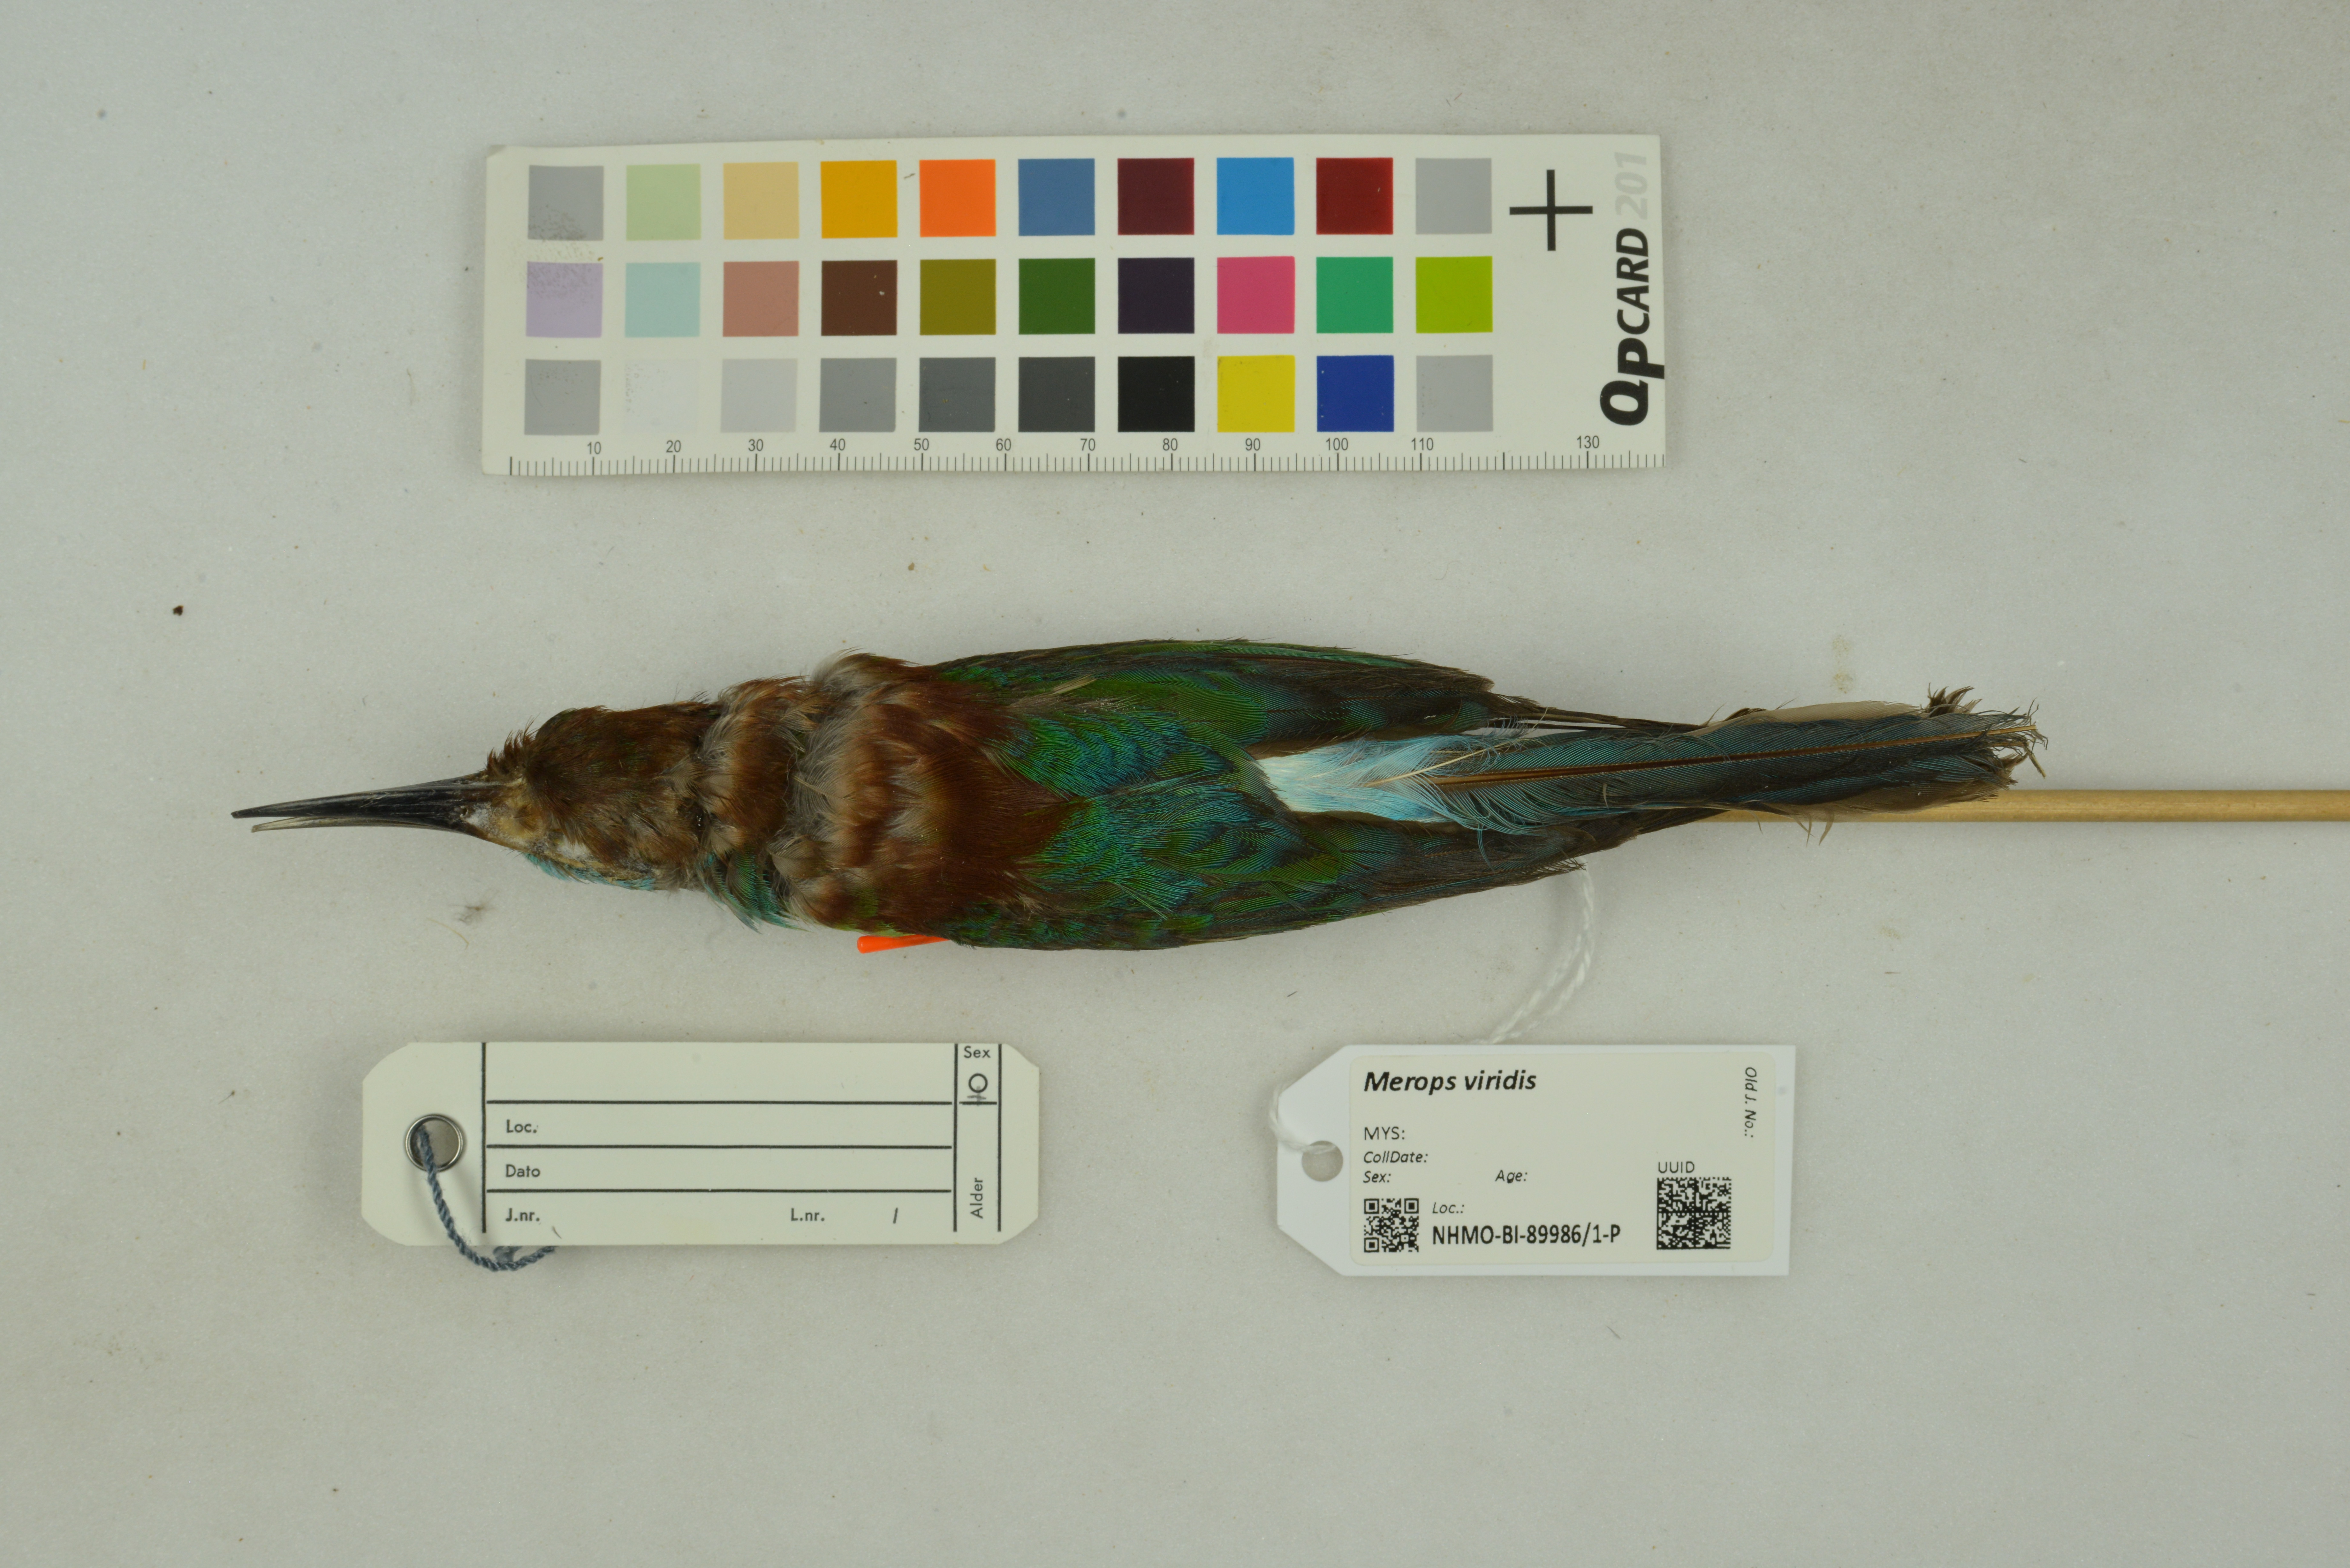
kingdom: Animalia
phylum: Chordata
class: Aves
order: Coraciiformes
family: Meropidae
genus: Merops
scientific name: Merops viridis
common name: Blue-throated bee-eater
